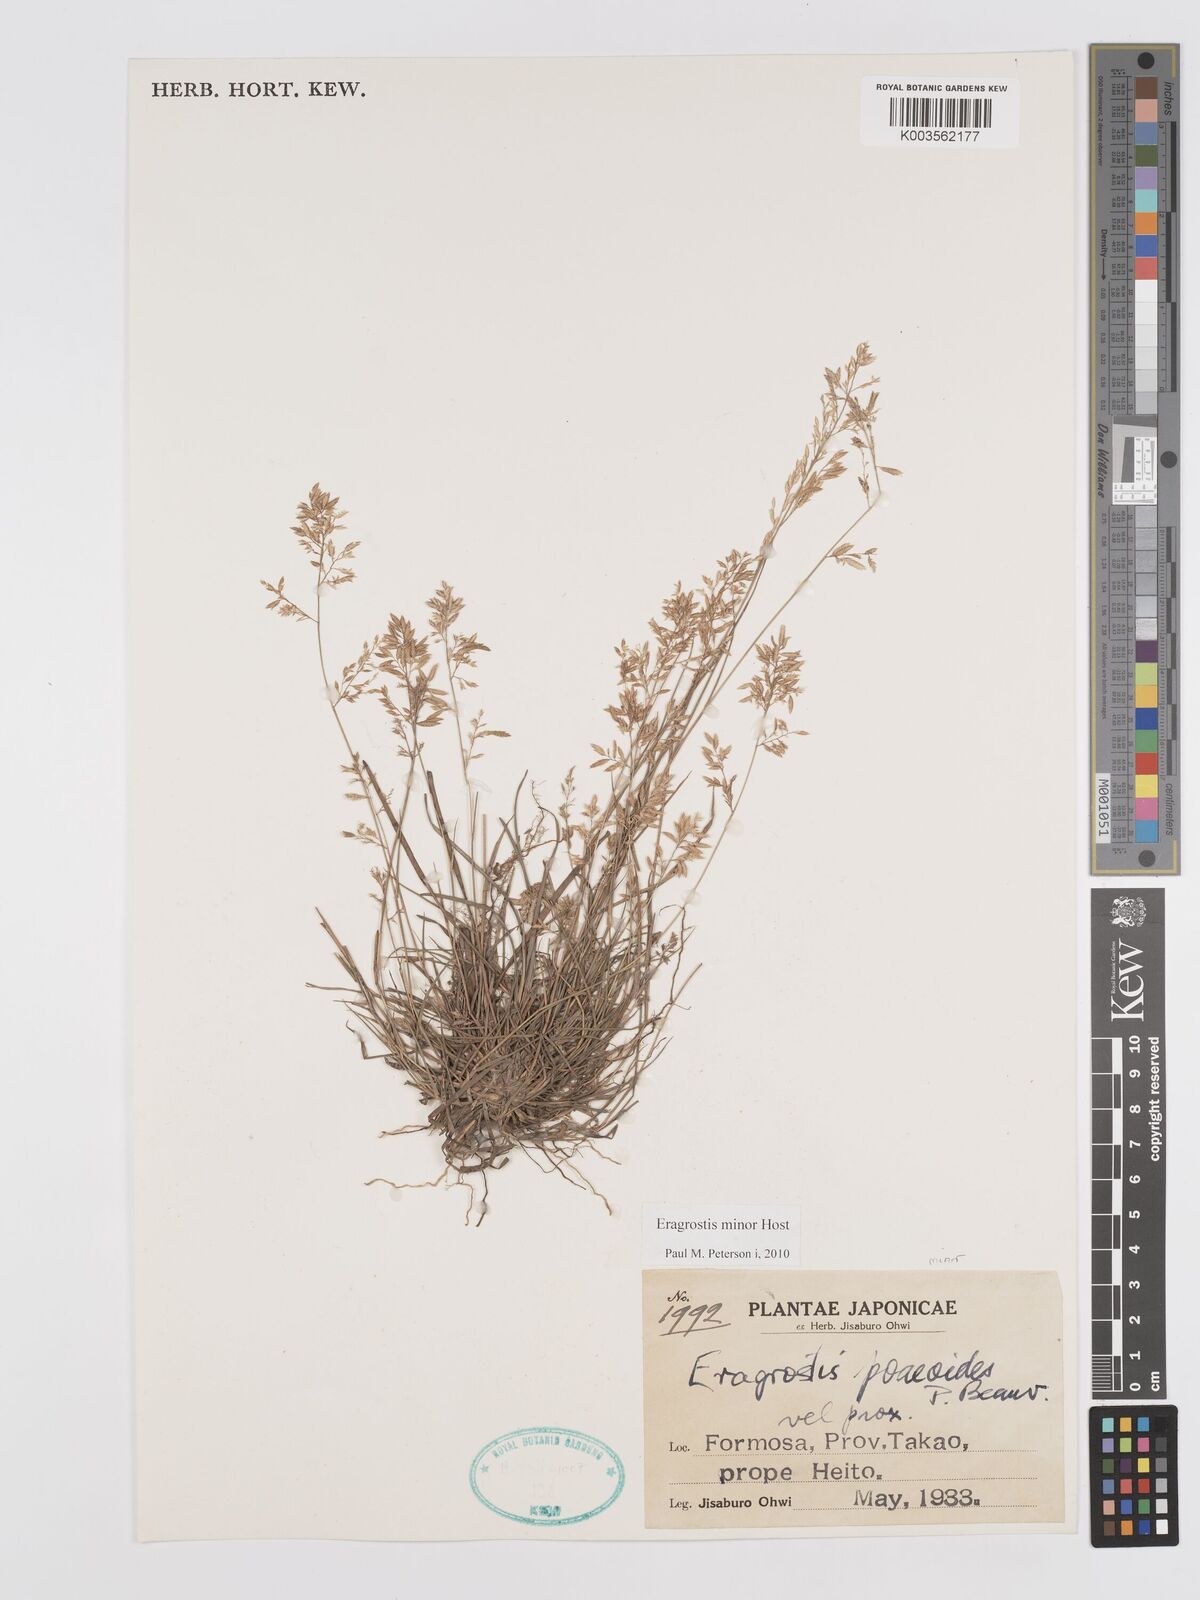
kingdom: Plantae
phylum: Tracheophyta
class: Liliopsida
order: Poales
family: Poaceae
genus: Eragrostis
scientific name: Eragrostis minor
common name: Small love-grass
